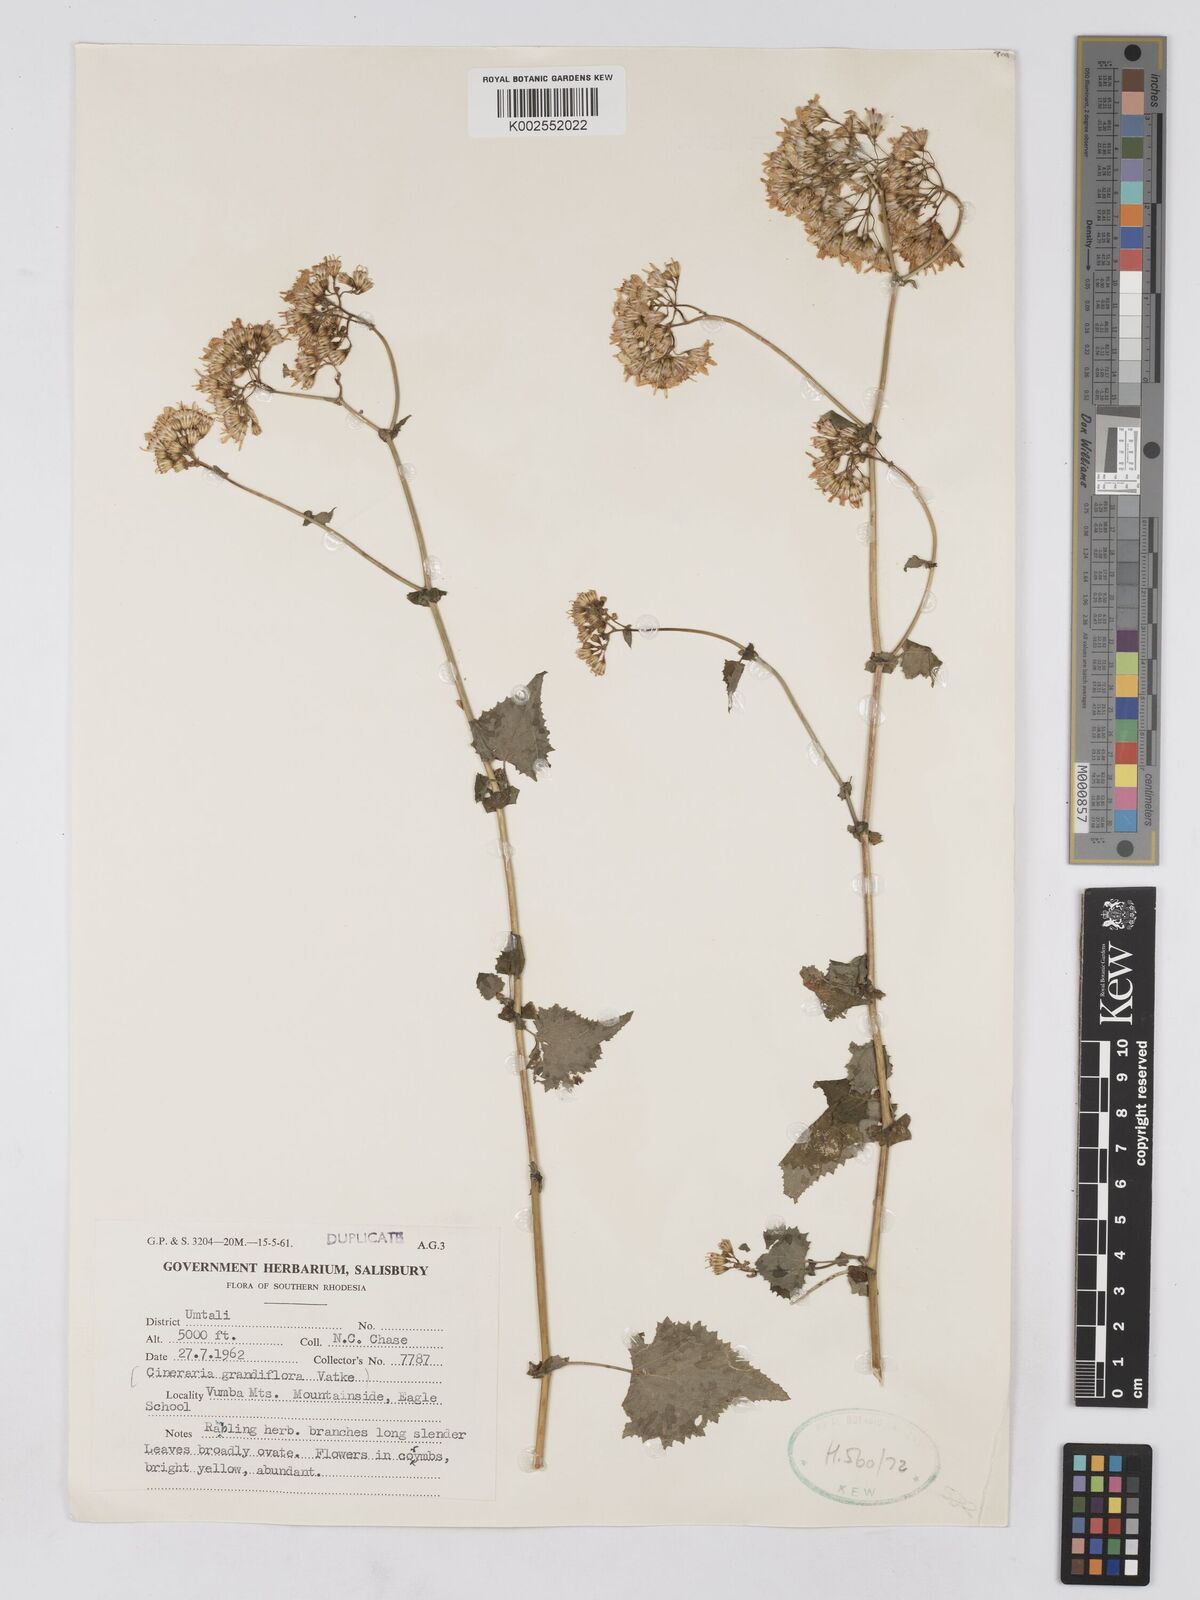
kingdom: Plantae
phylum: Tracheophyta
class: Magnoliopsida
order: Asterales
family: Asteraceae
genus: Cineraria
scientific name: Cineraria deltoidea
